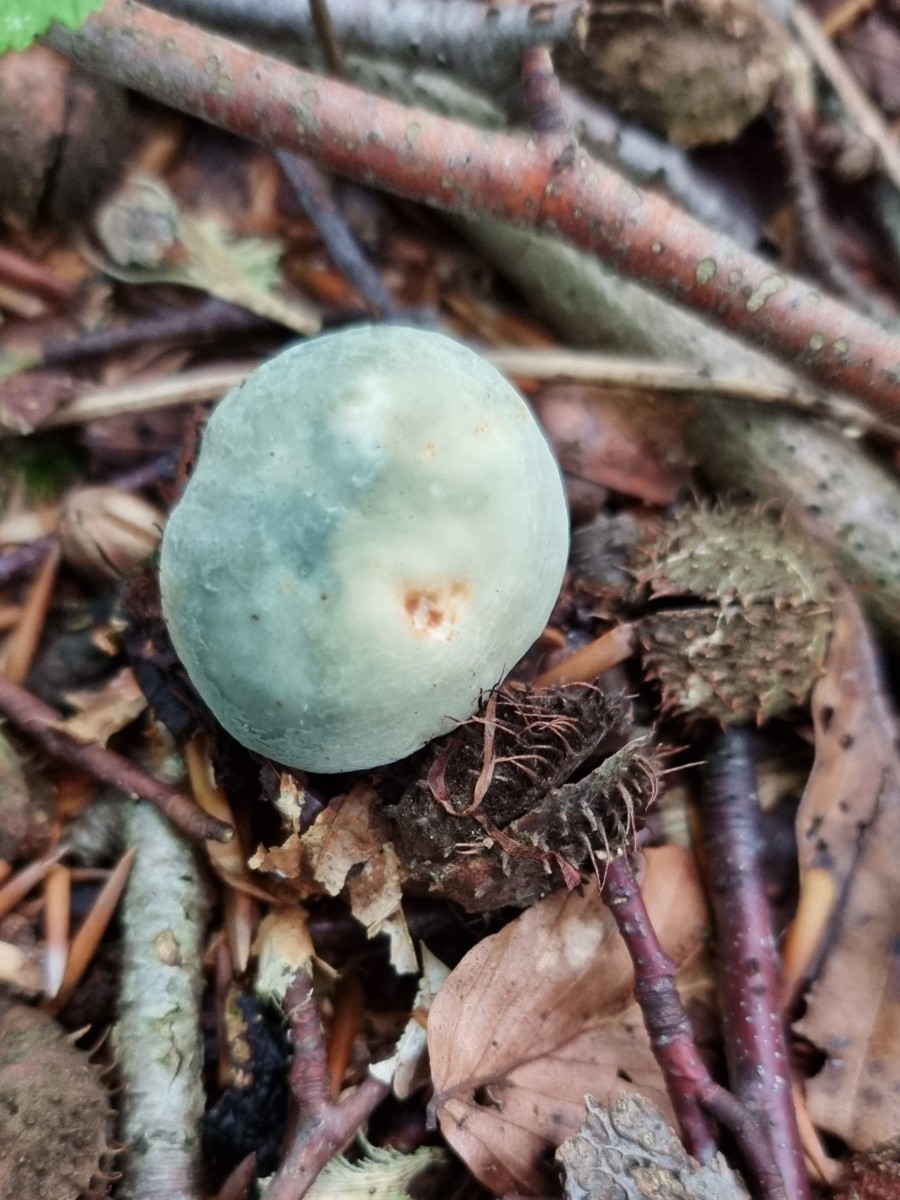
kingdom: Fungi
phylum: Basidiomycota
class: Agaricomycetes
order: Russulales
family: Russulaceae
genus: Russula
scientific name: Russula virescens
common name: spanskgrøn skørhat
